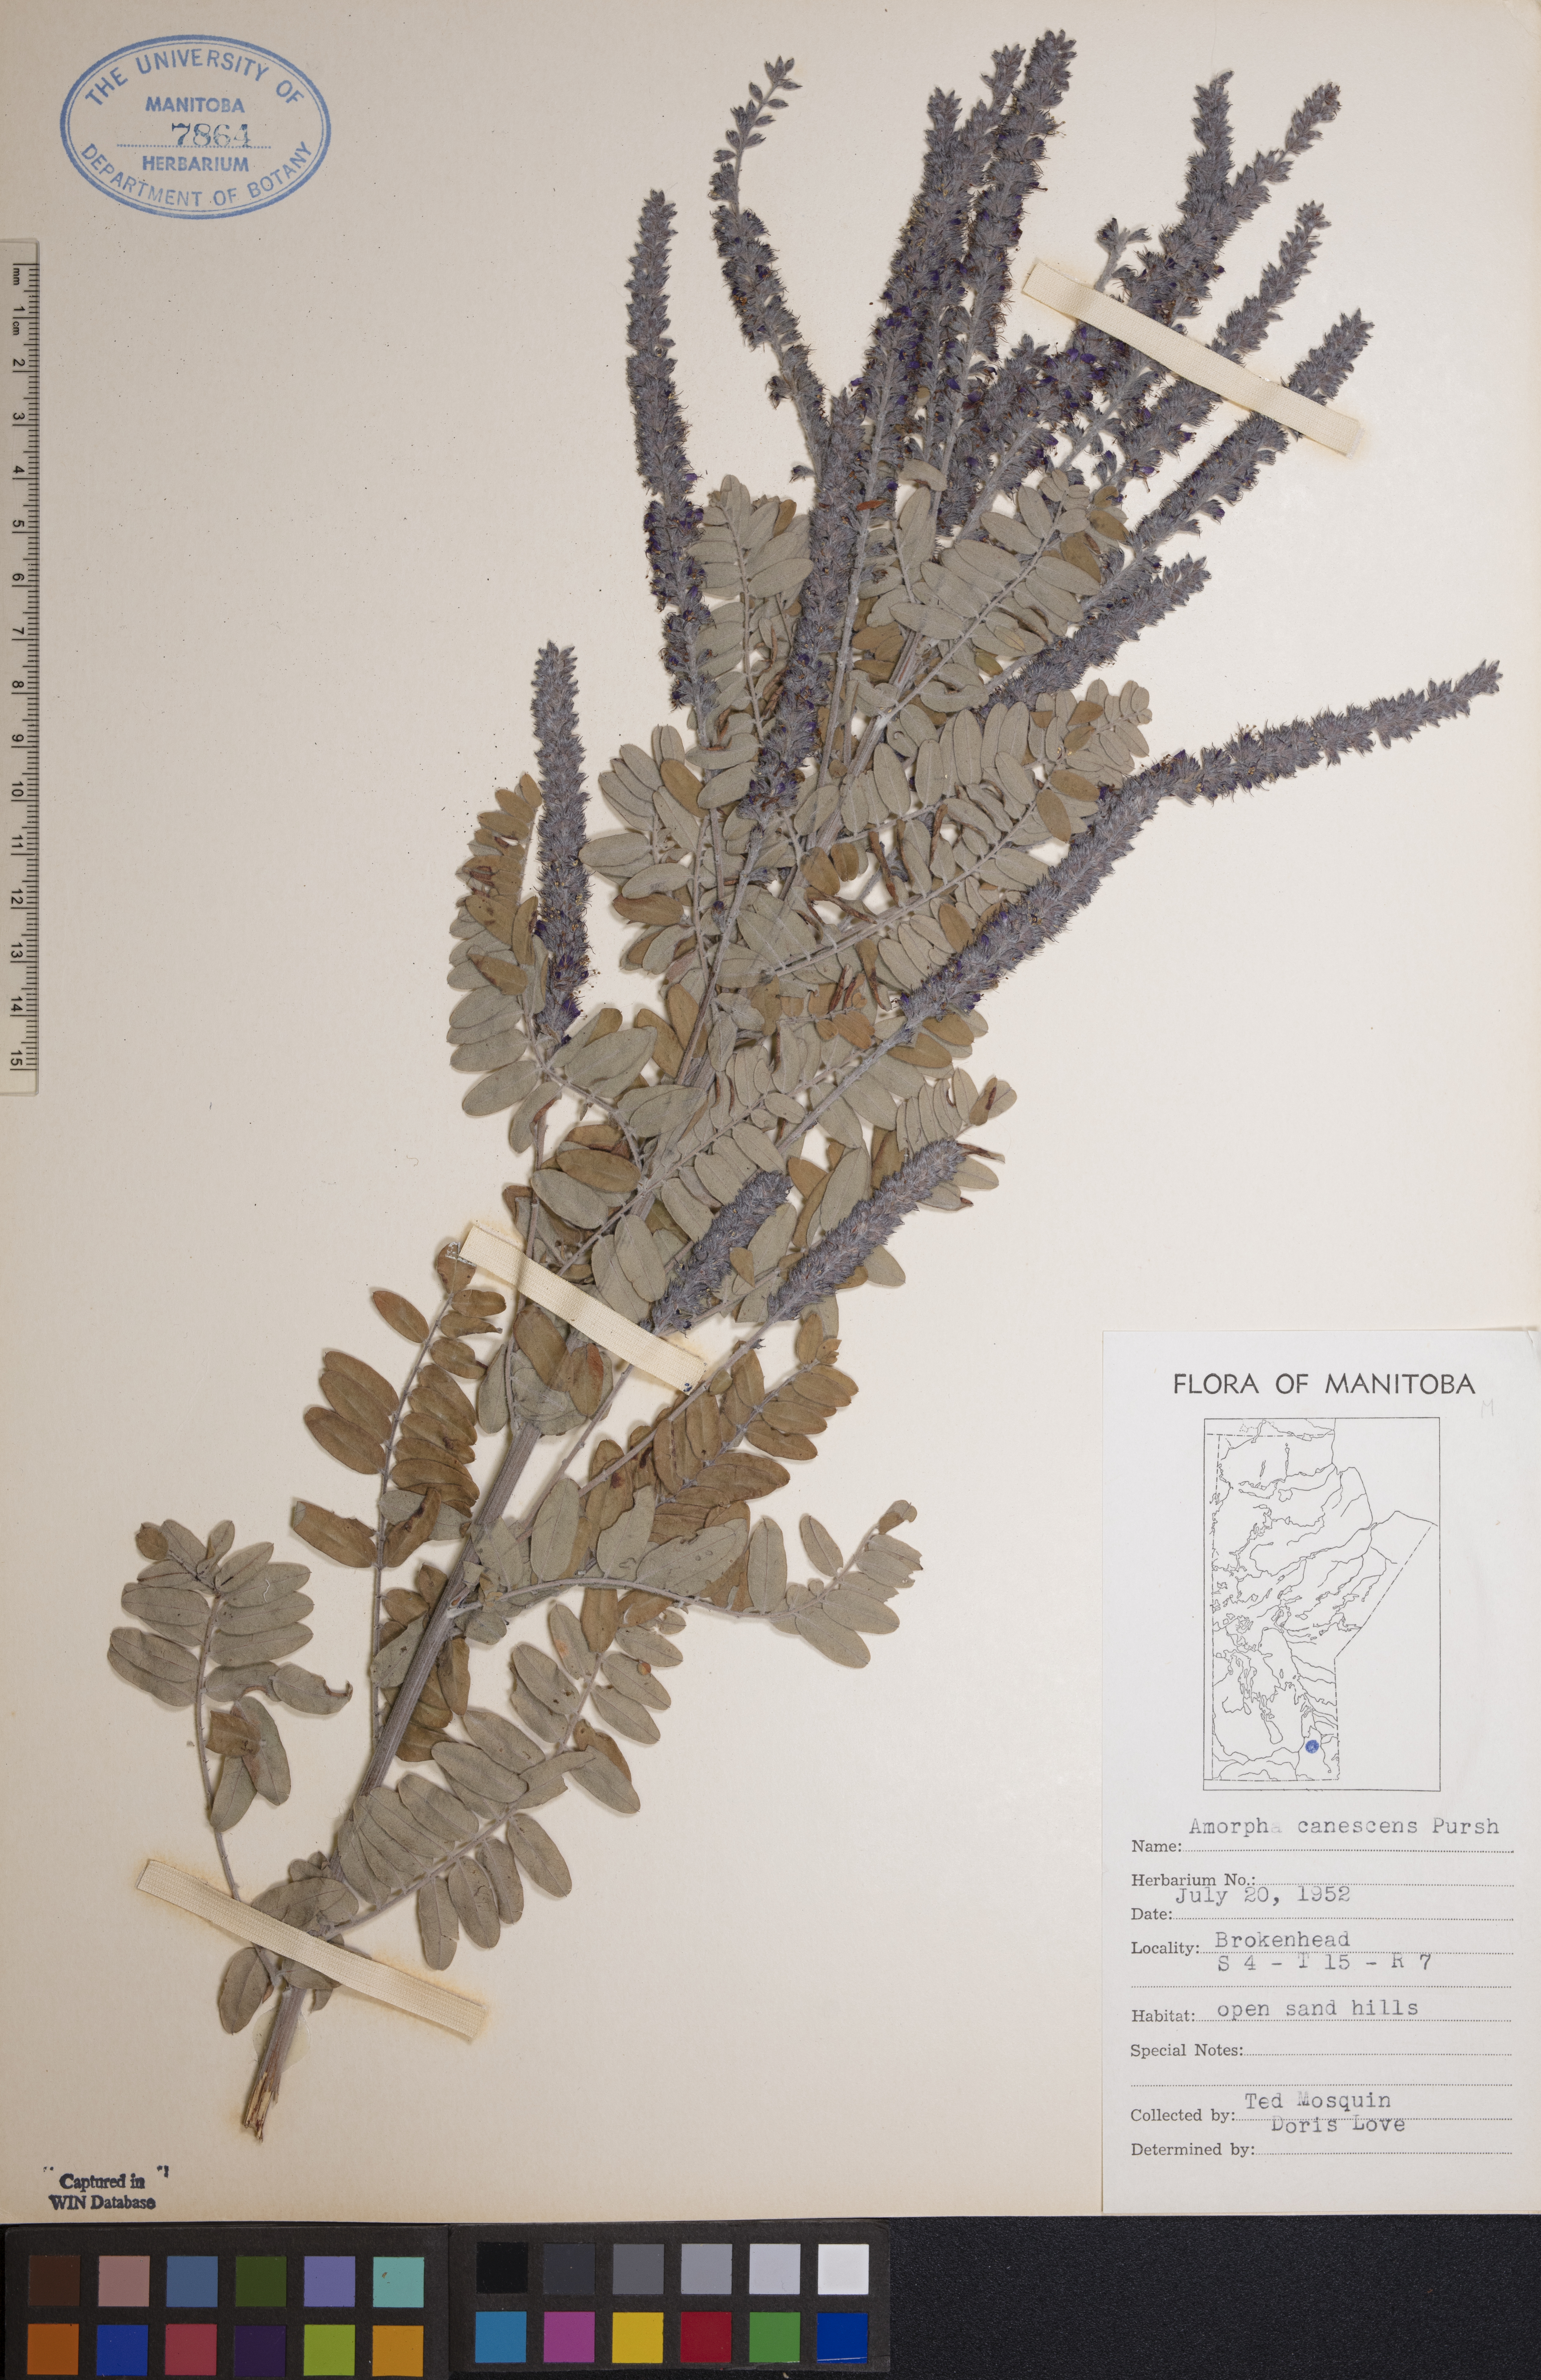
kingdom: Plantae
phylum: Tracheophyta
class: Magnoliopsida
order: Fabales
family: Fabaceae
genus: Amorpha
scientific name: Amorpha canescens
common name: Leadplant
